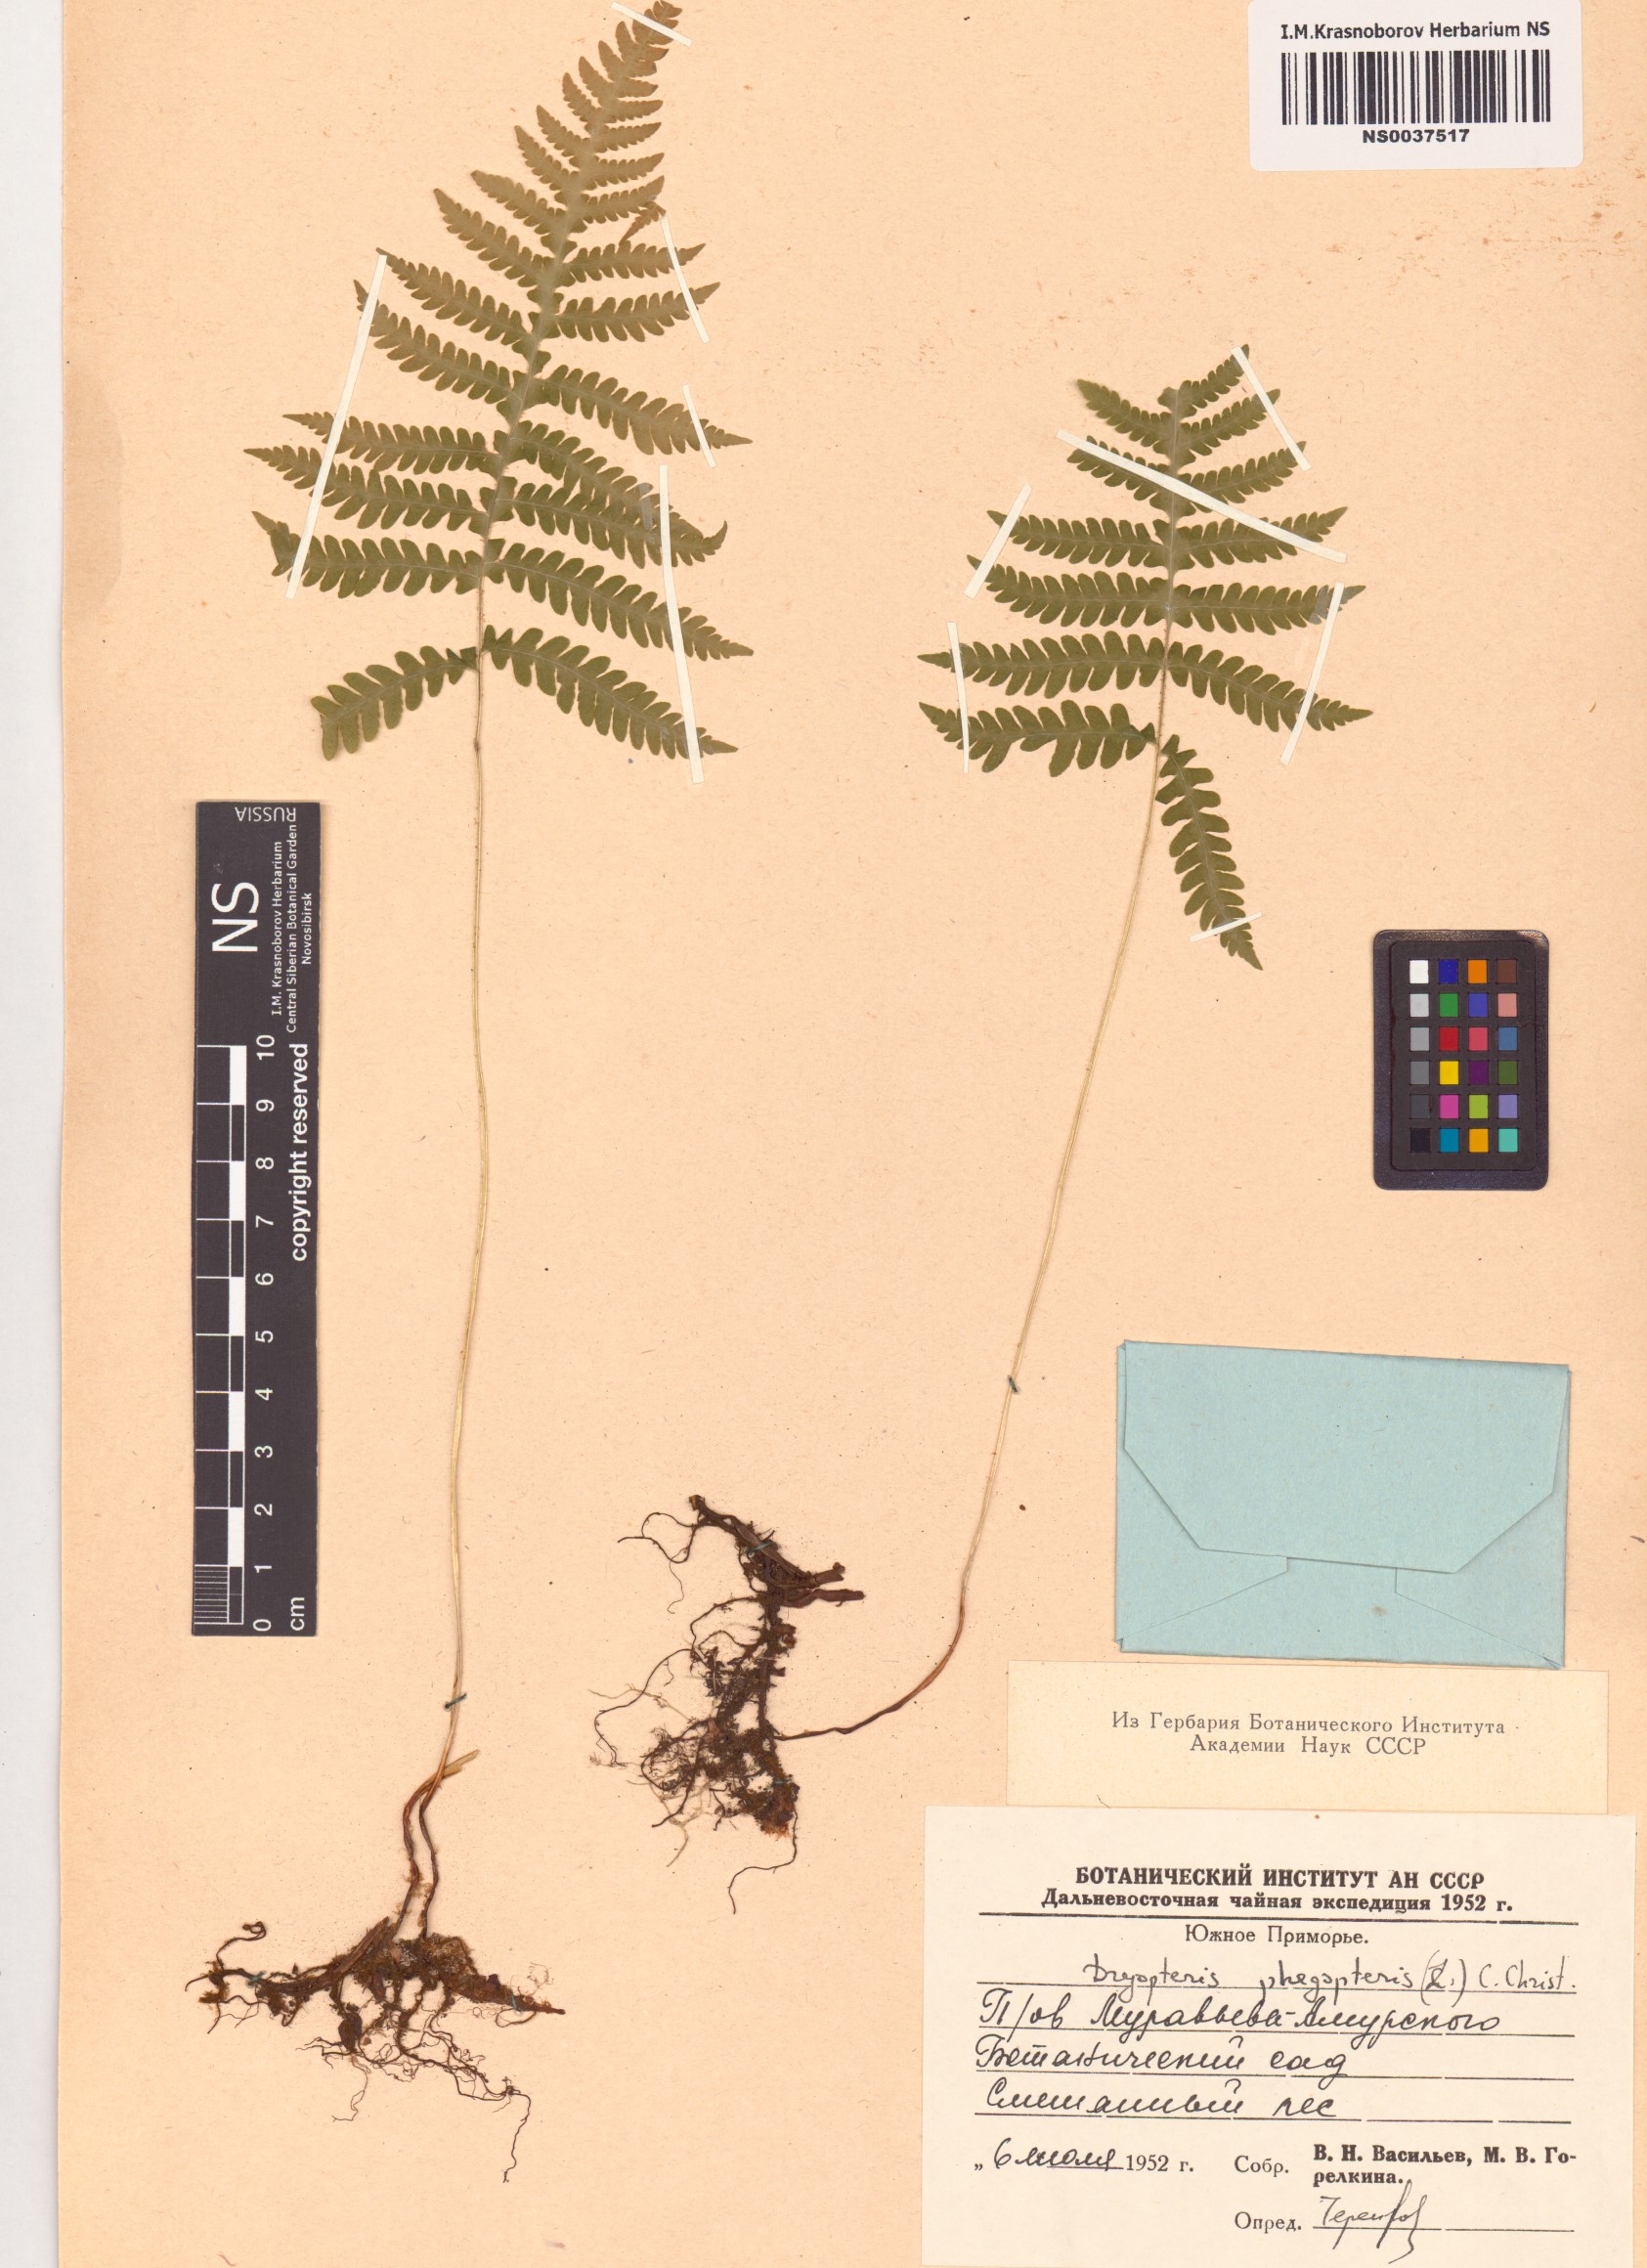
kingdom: Plantae
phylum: Tracheophyta
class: Polypodiopsida
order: Polypodiales
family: Thelypteridaceae
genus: Phegopteris
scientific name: Phegopteris connectilis
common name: Beech fern
